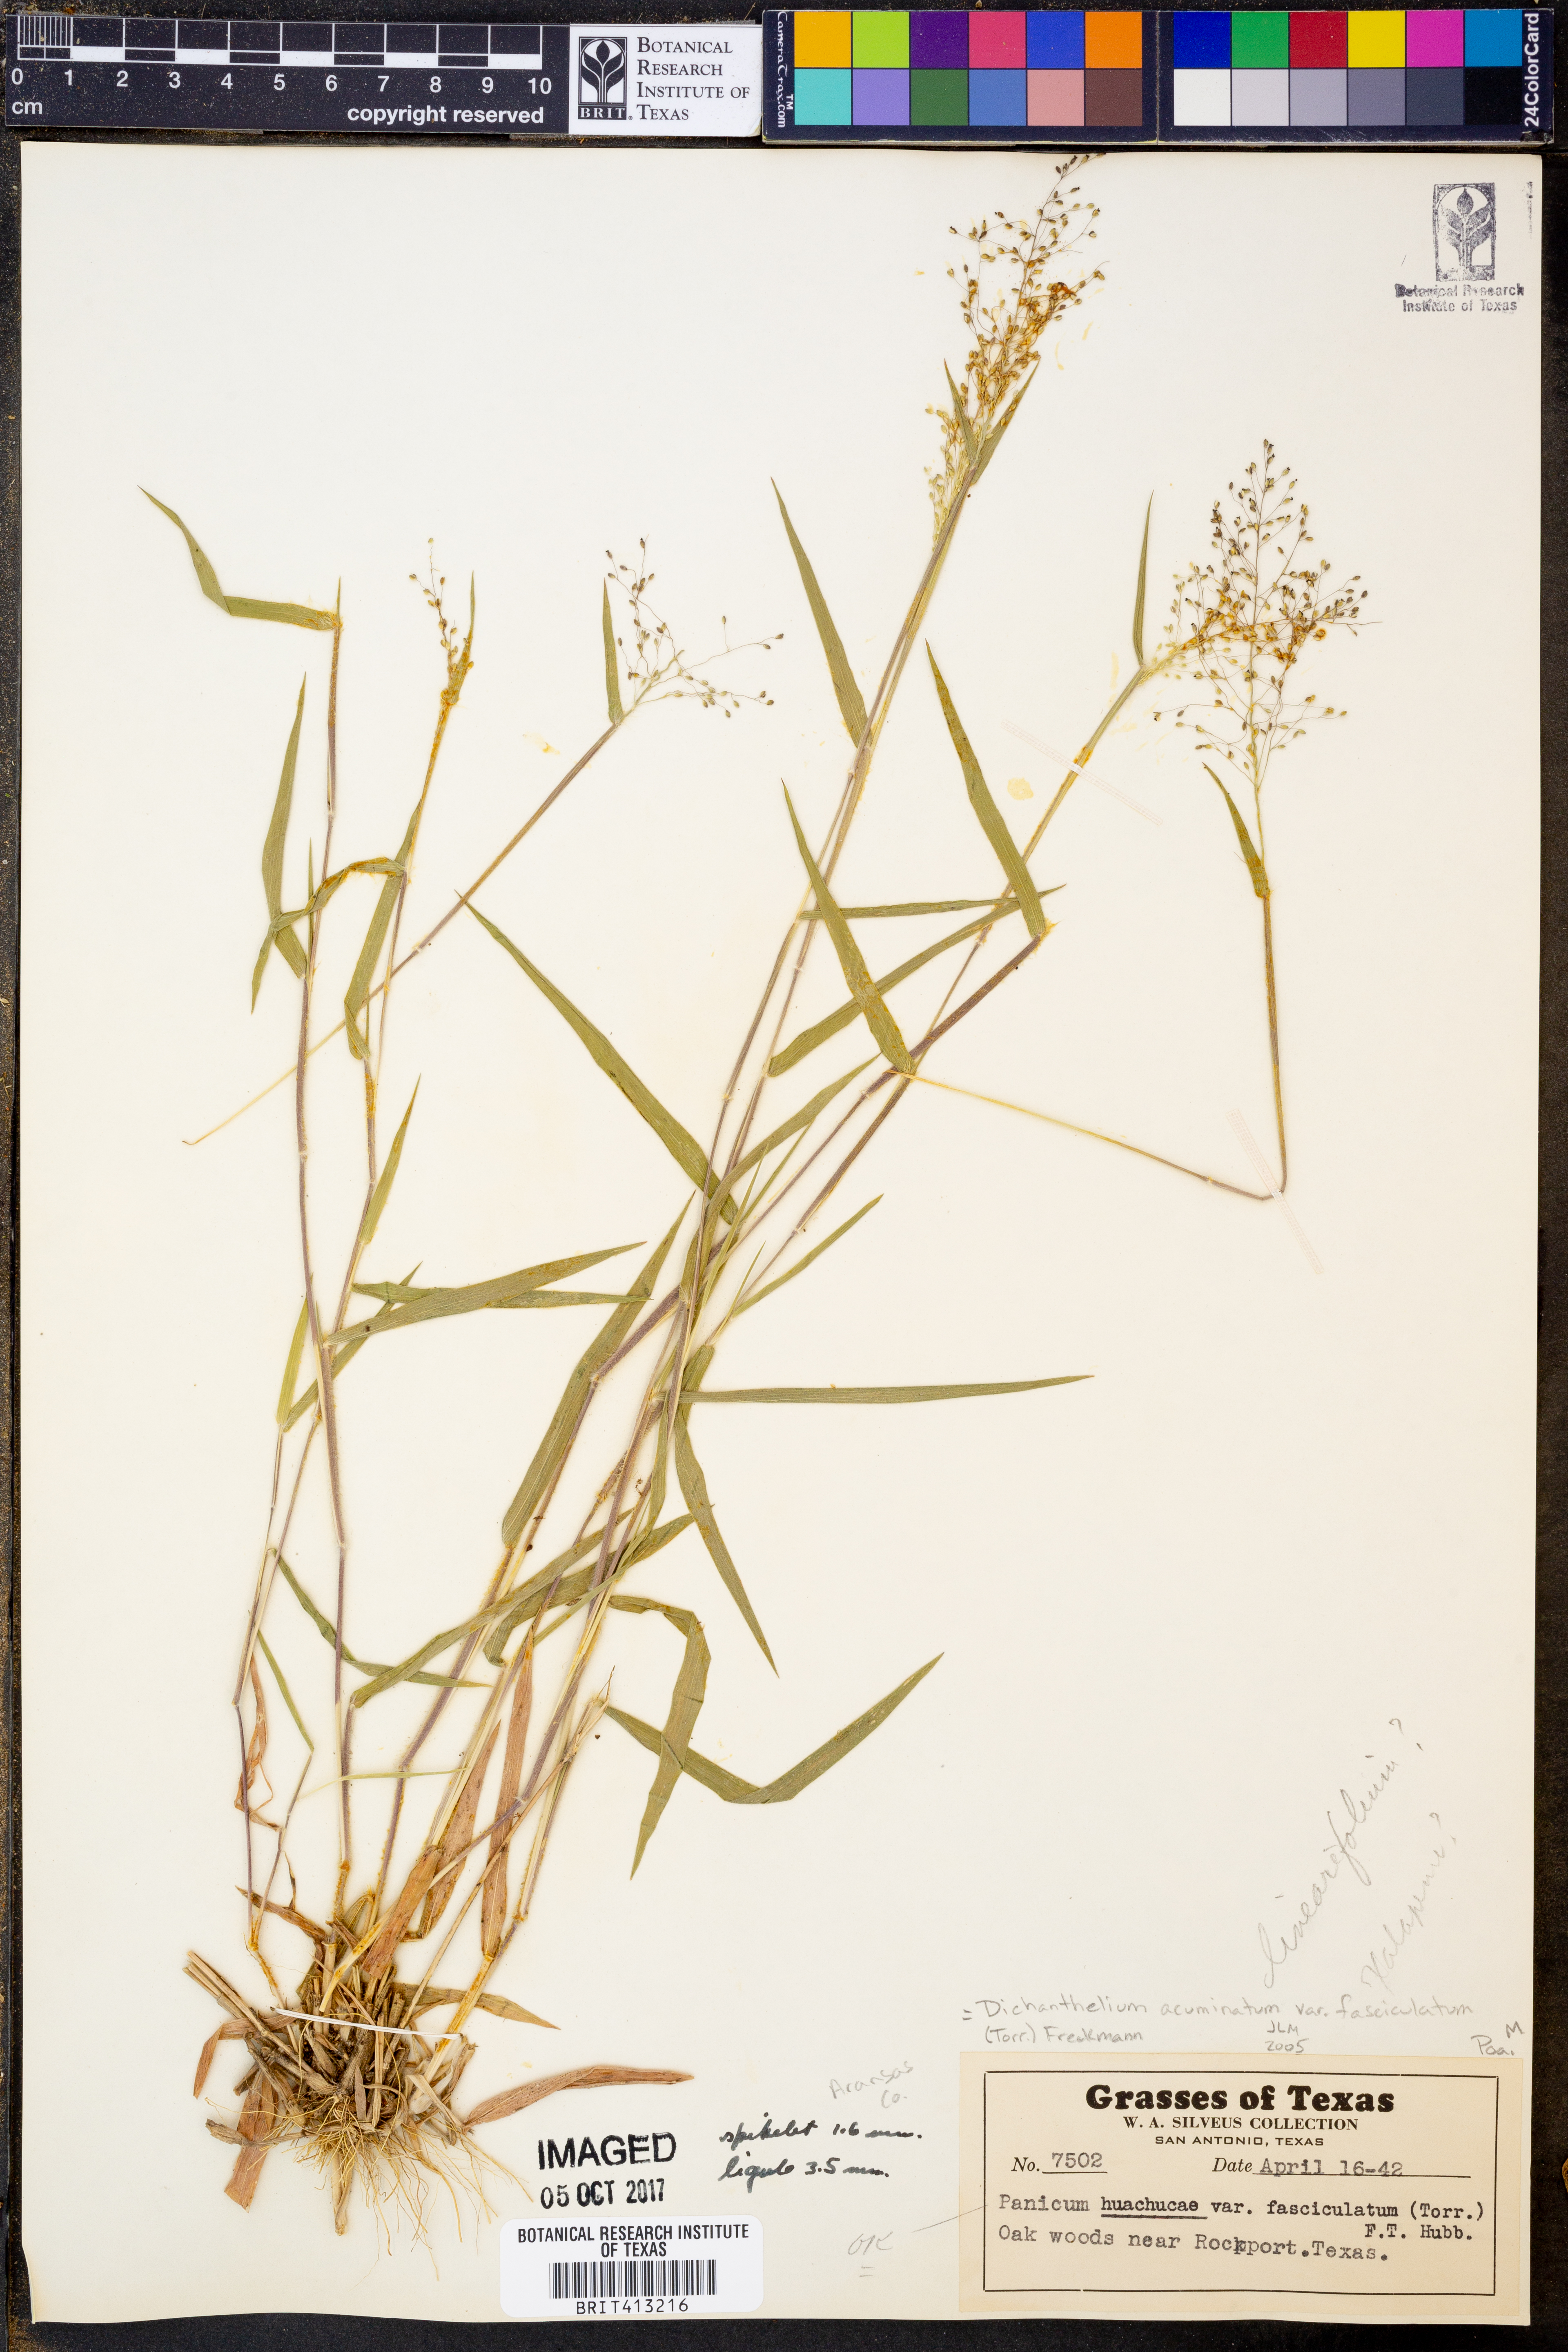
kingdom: Plantae
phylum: Tracheophyta
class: Liliopsida
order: Poales
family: Poaceae
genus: Dichanthelium
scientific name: Dichanthelium lanuginosum
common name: Woolly panicgrass
